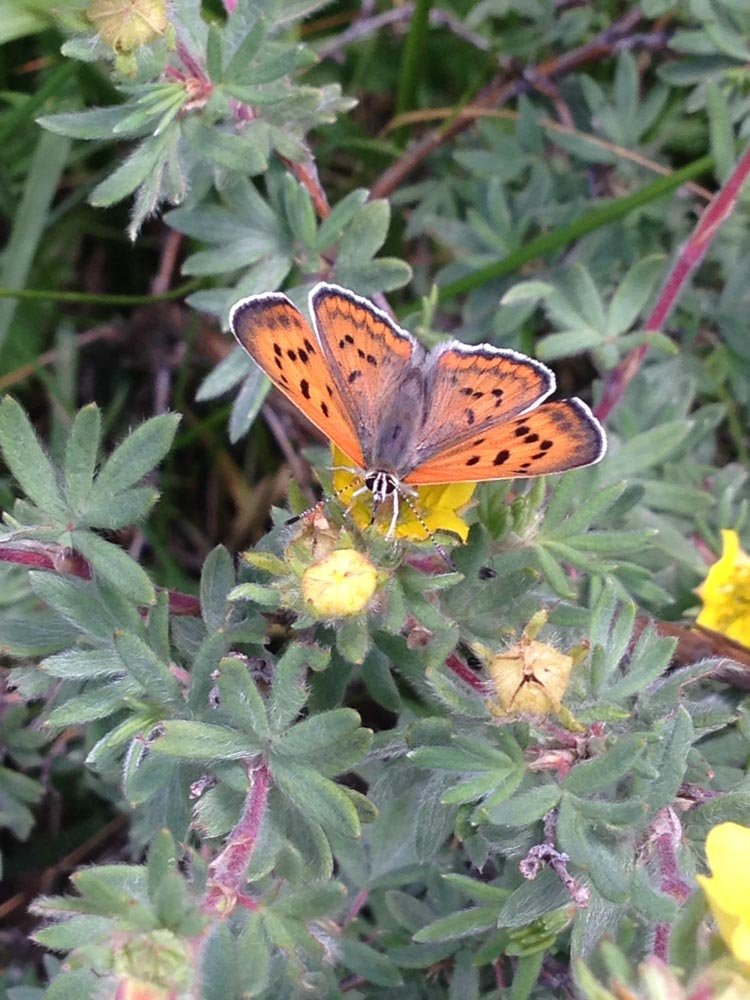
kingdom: Animalia
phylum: Arthropoda
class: Insecta
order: Lepidoptera
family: Sesiidae
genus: Sesia
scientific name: Sesia Lycaena rubidus
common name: Ruddy Copper
